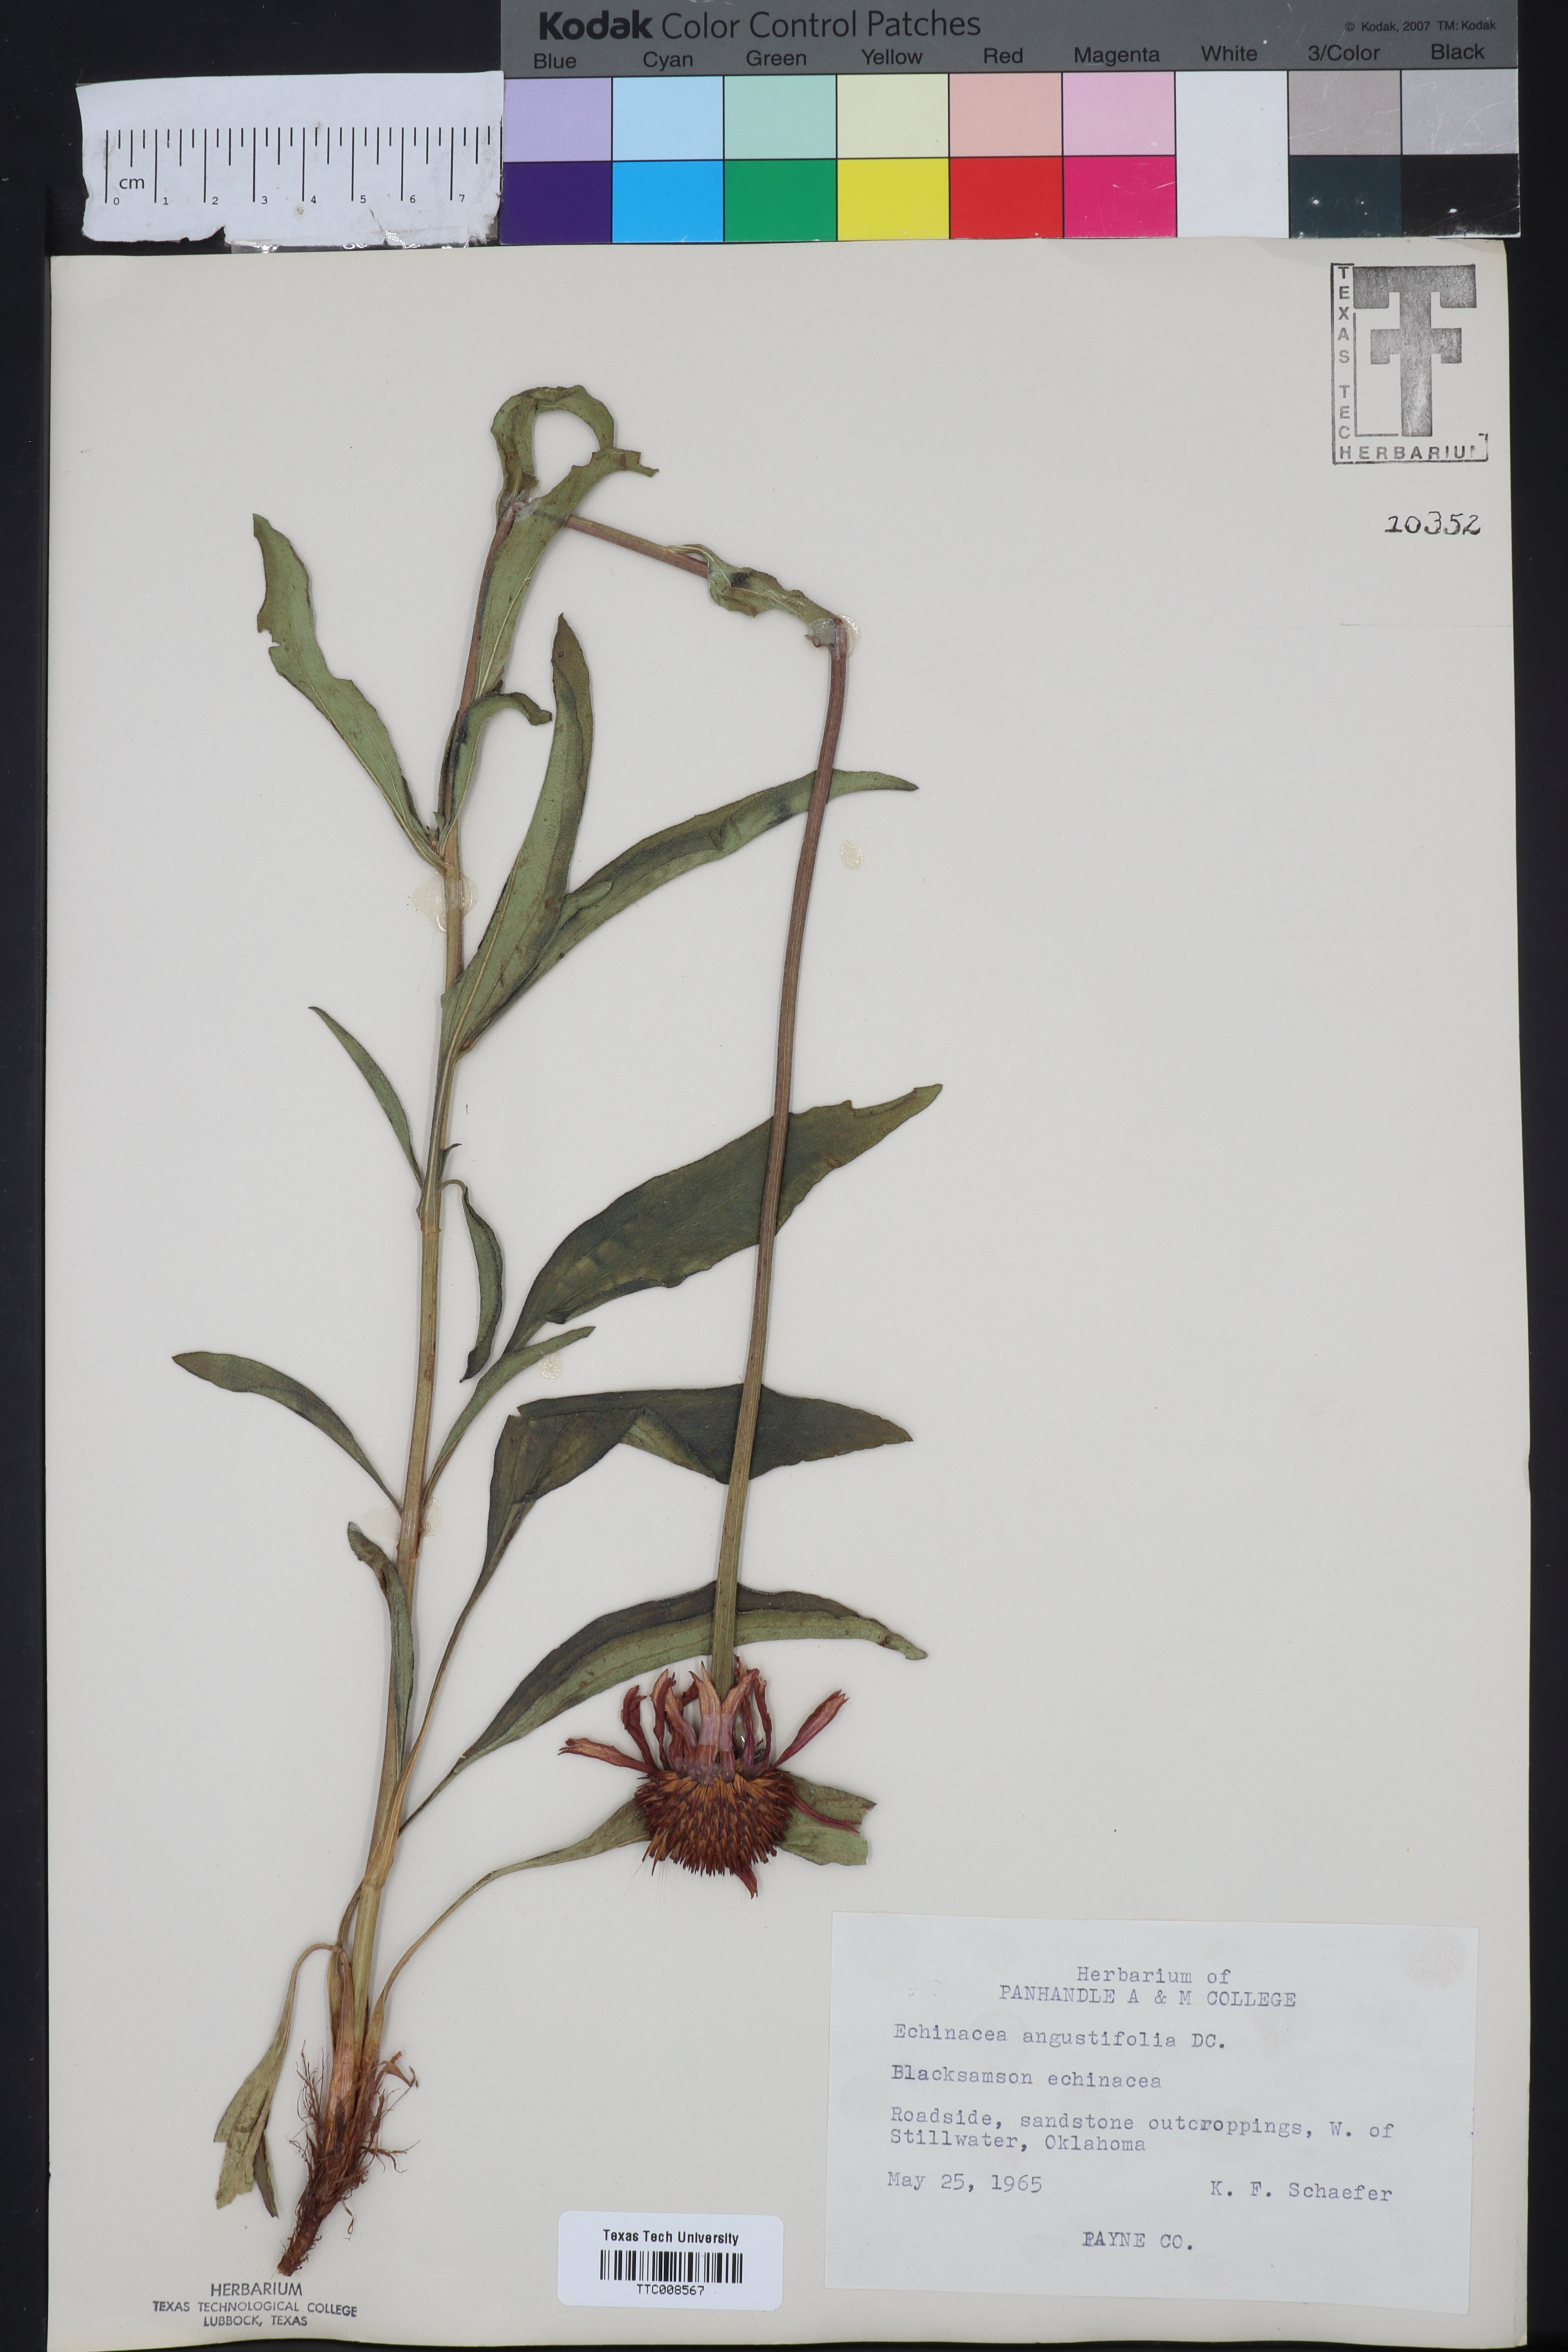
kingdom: Plantae
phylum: Tracheophyta
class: Magnoliopsida
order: Asterales
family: Asteraceae
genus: Echinacea
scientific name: Echinacea angustifolia
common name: Black-sampson echinacea
